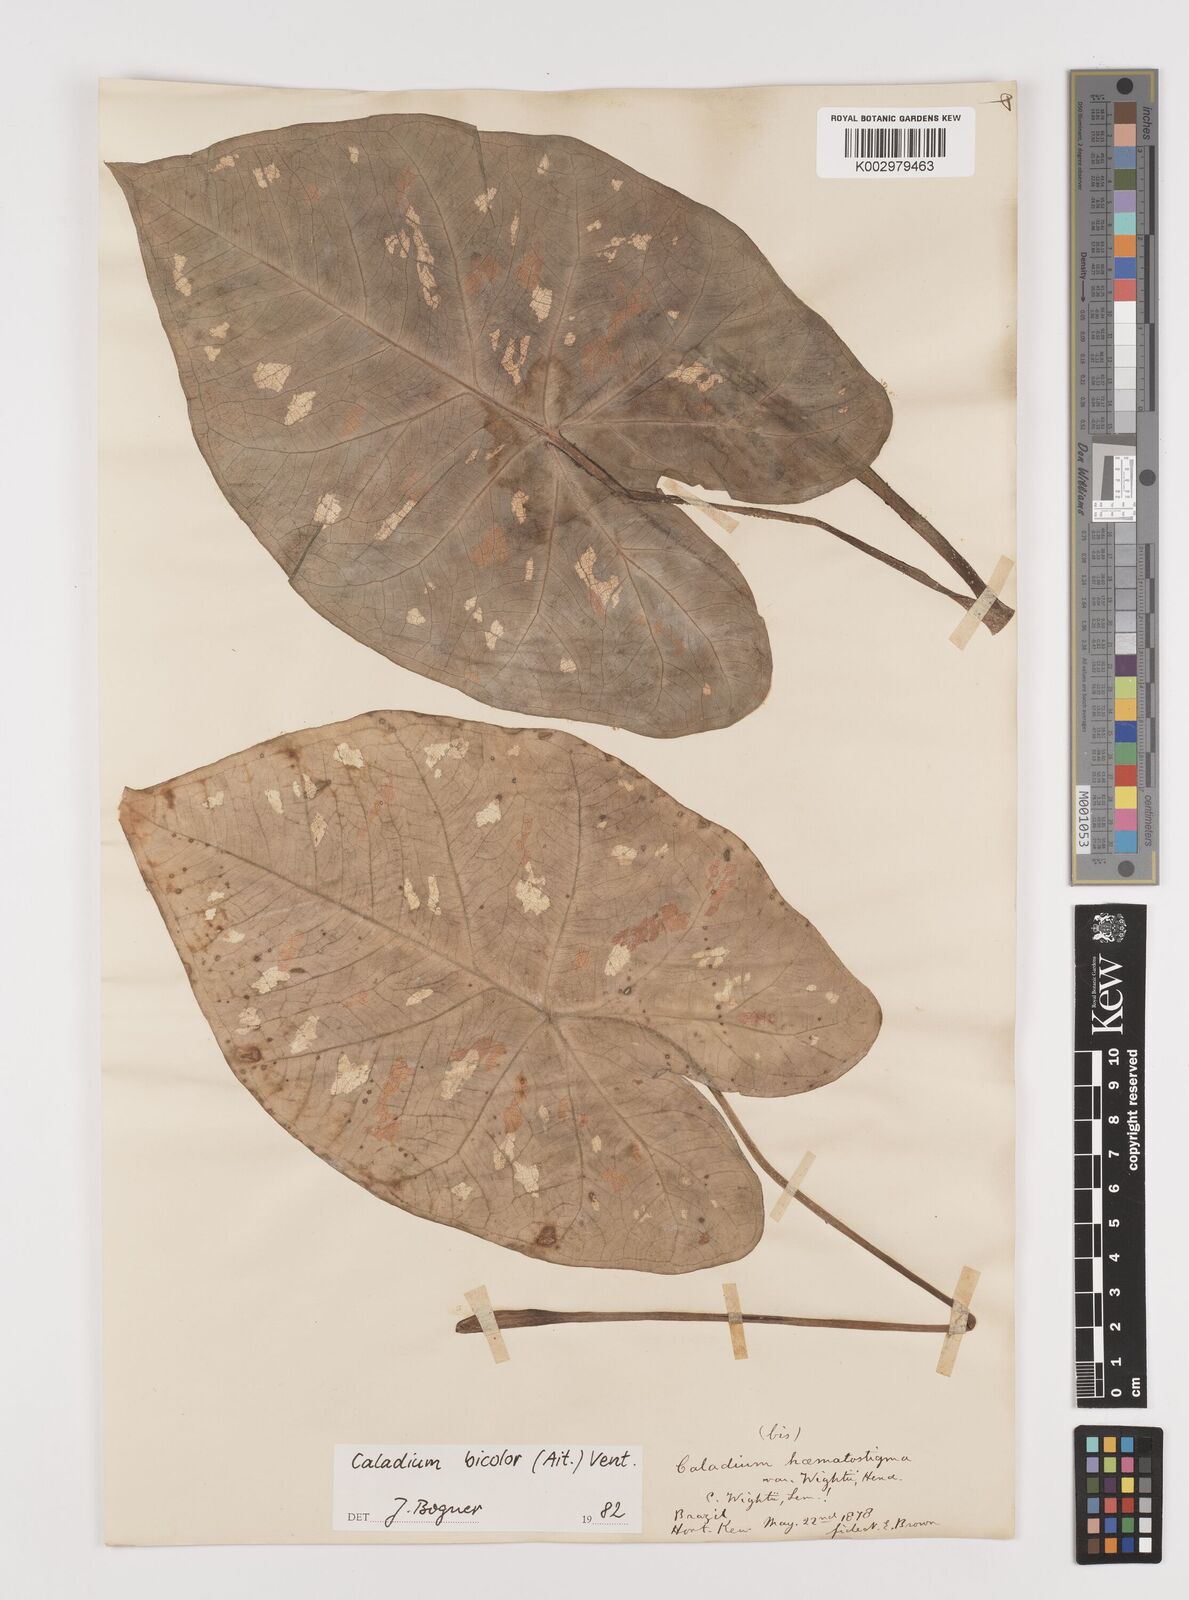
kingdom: Plantae
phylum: Tracheophyta
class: Liliopsida
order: Alismatales
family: Araceae
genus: Caladium
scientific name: Caladium bicolor
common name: Artist's pallet
